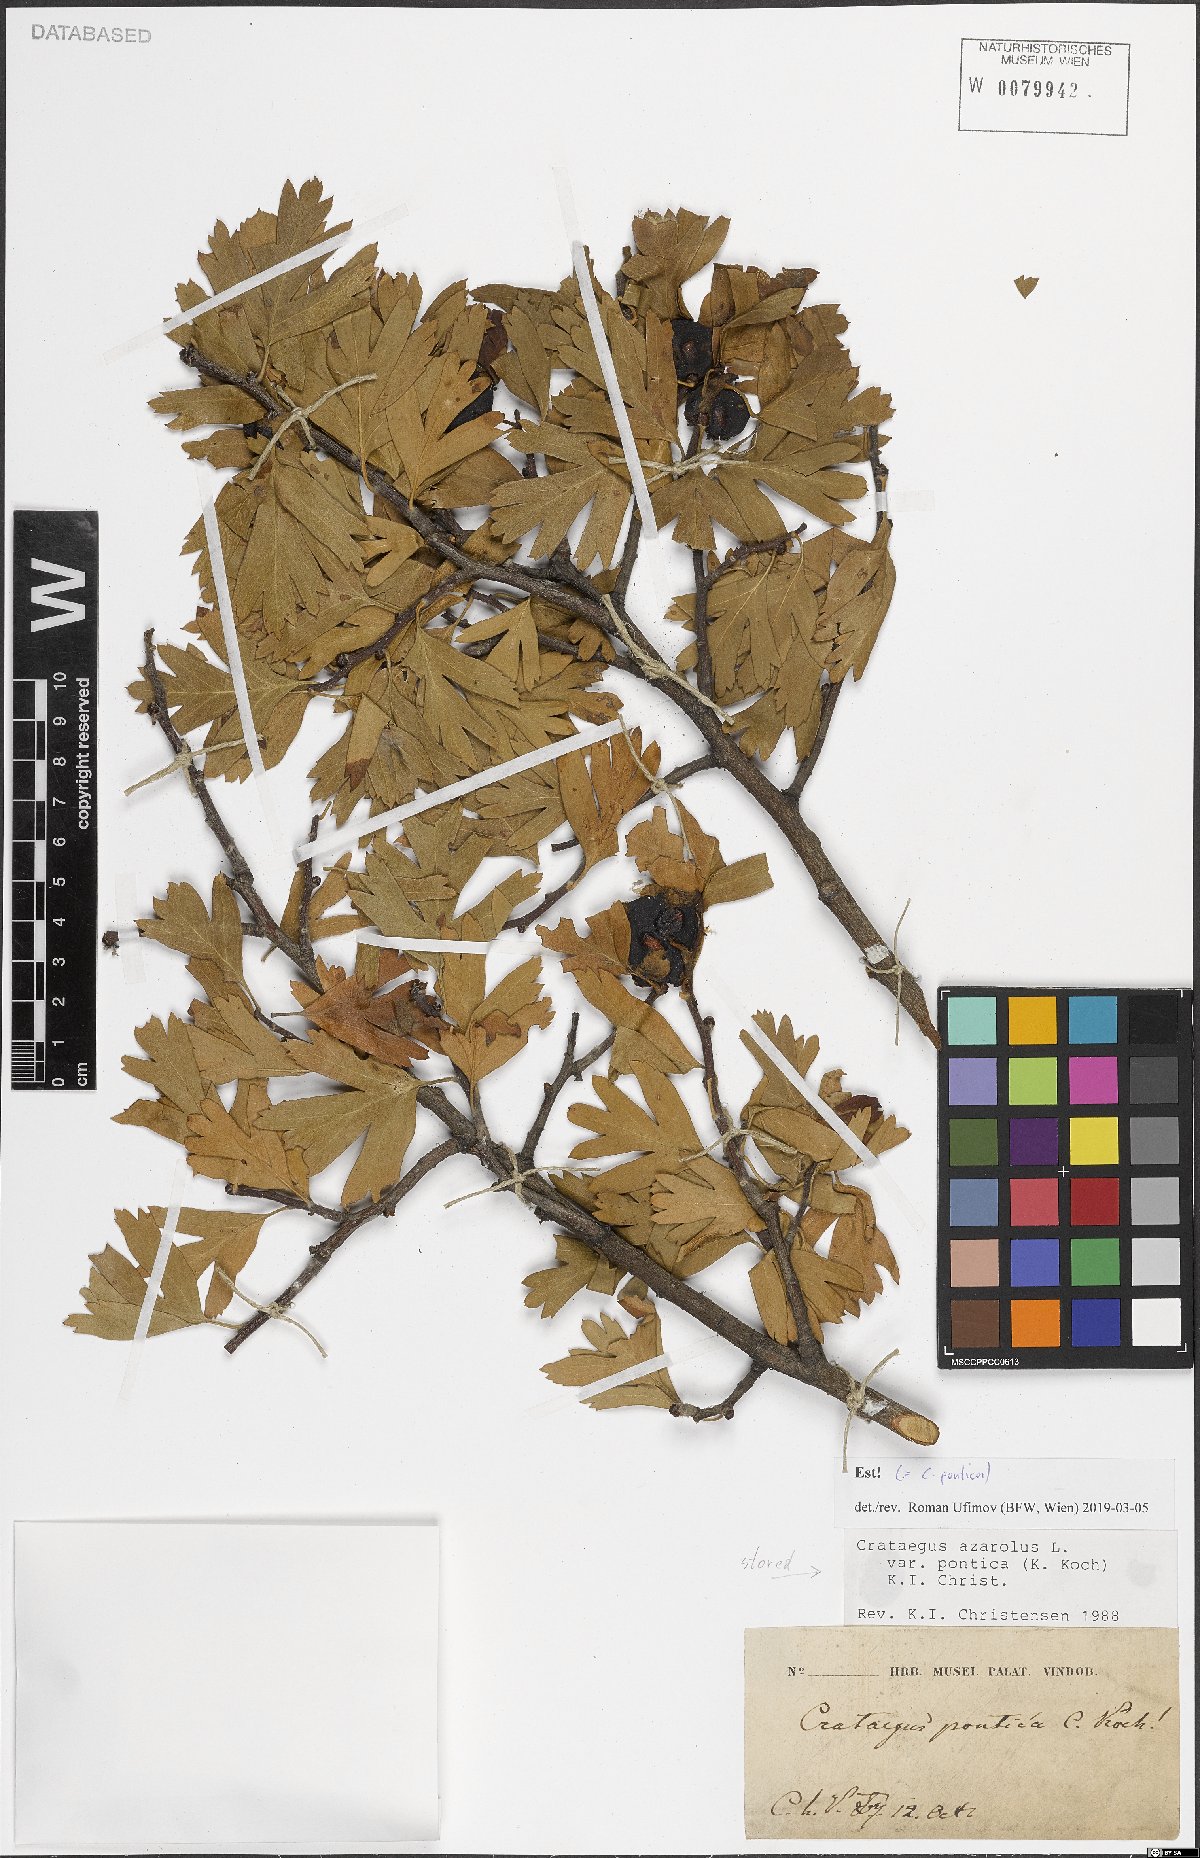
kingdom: Plantae
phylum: Tracheophyta
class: Magnoliopsida
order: Rosales
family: Rosaceae
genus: Crataegus
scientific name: Crataegus azarolus
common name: Azarole
